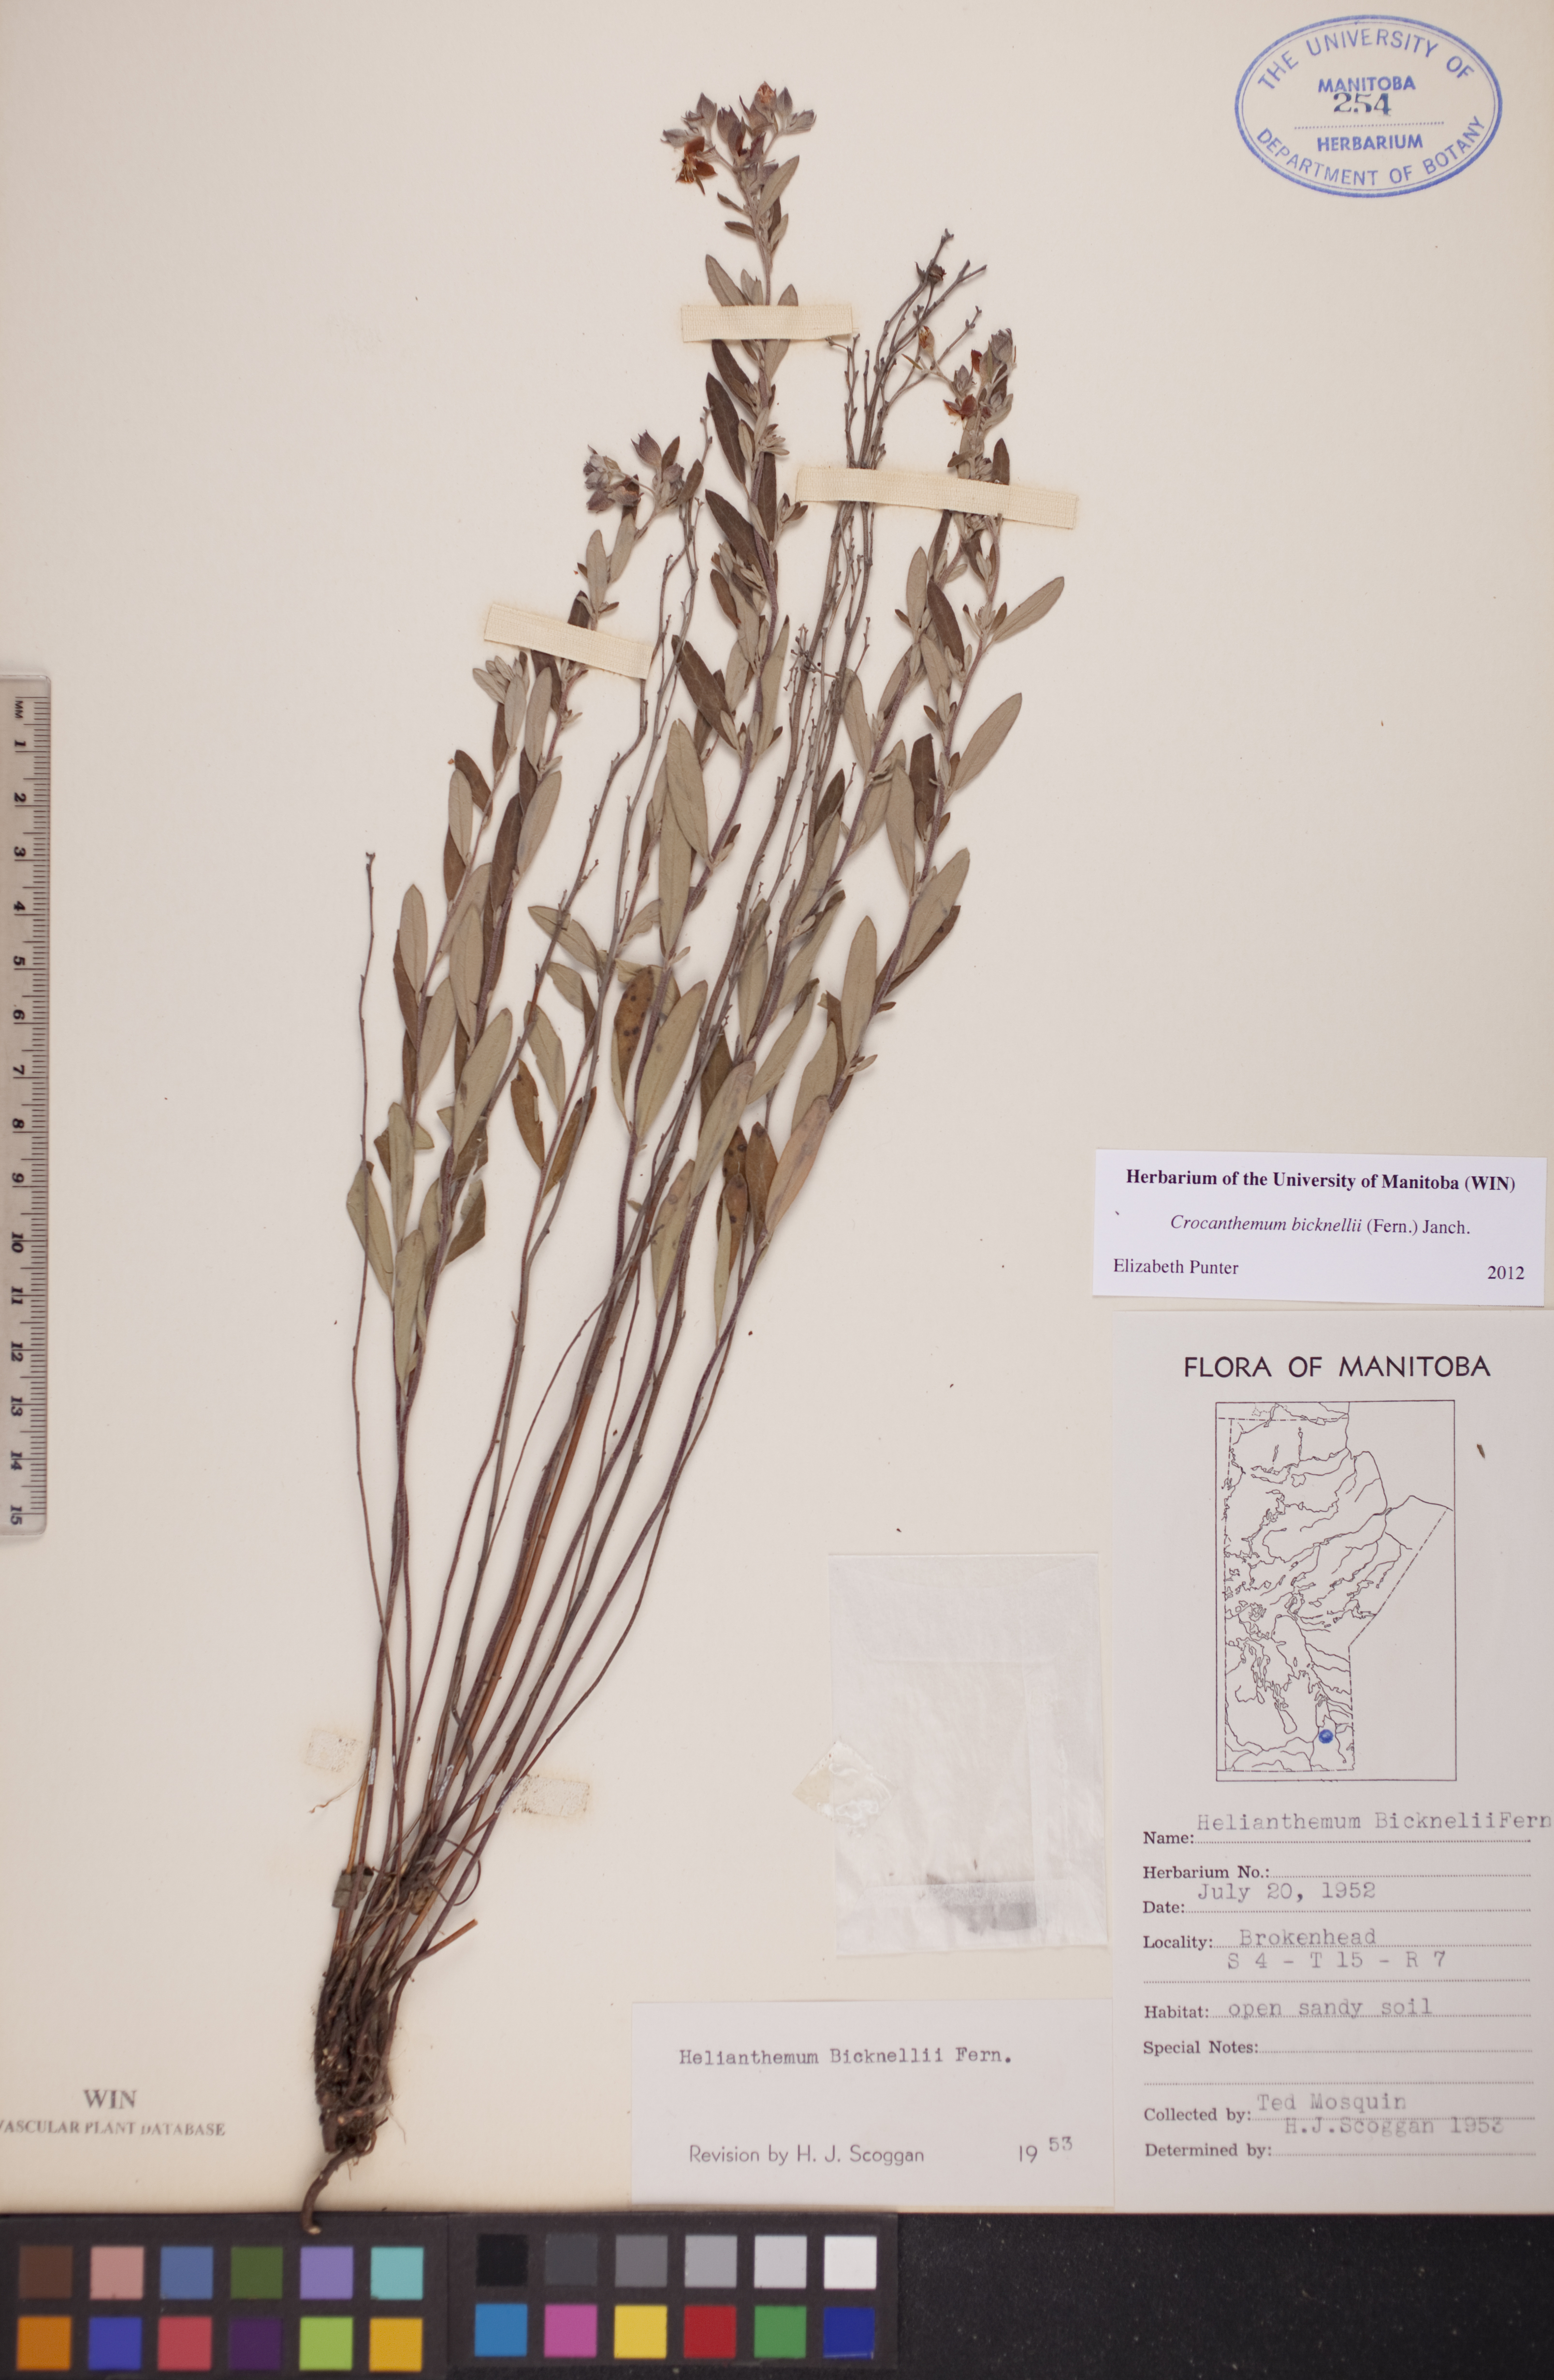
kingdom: Plantae
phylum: Tracheophyta
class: Magnoliopsida
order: Malvales
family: Cistaceae
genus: Crocanthemum
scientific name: Crocanthemum bicknellii
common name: Hoary frostweed
